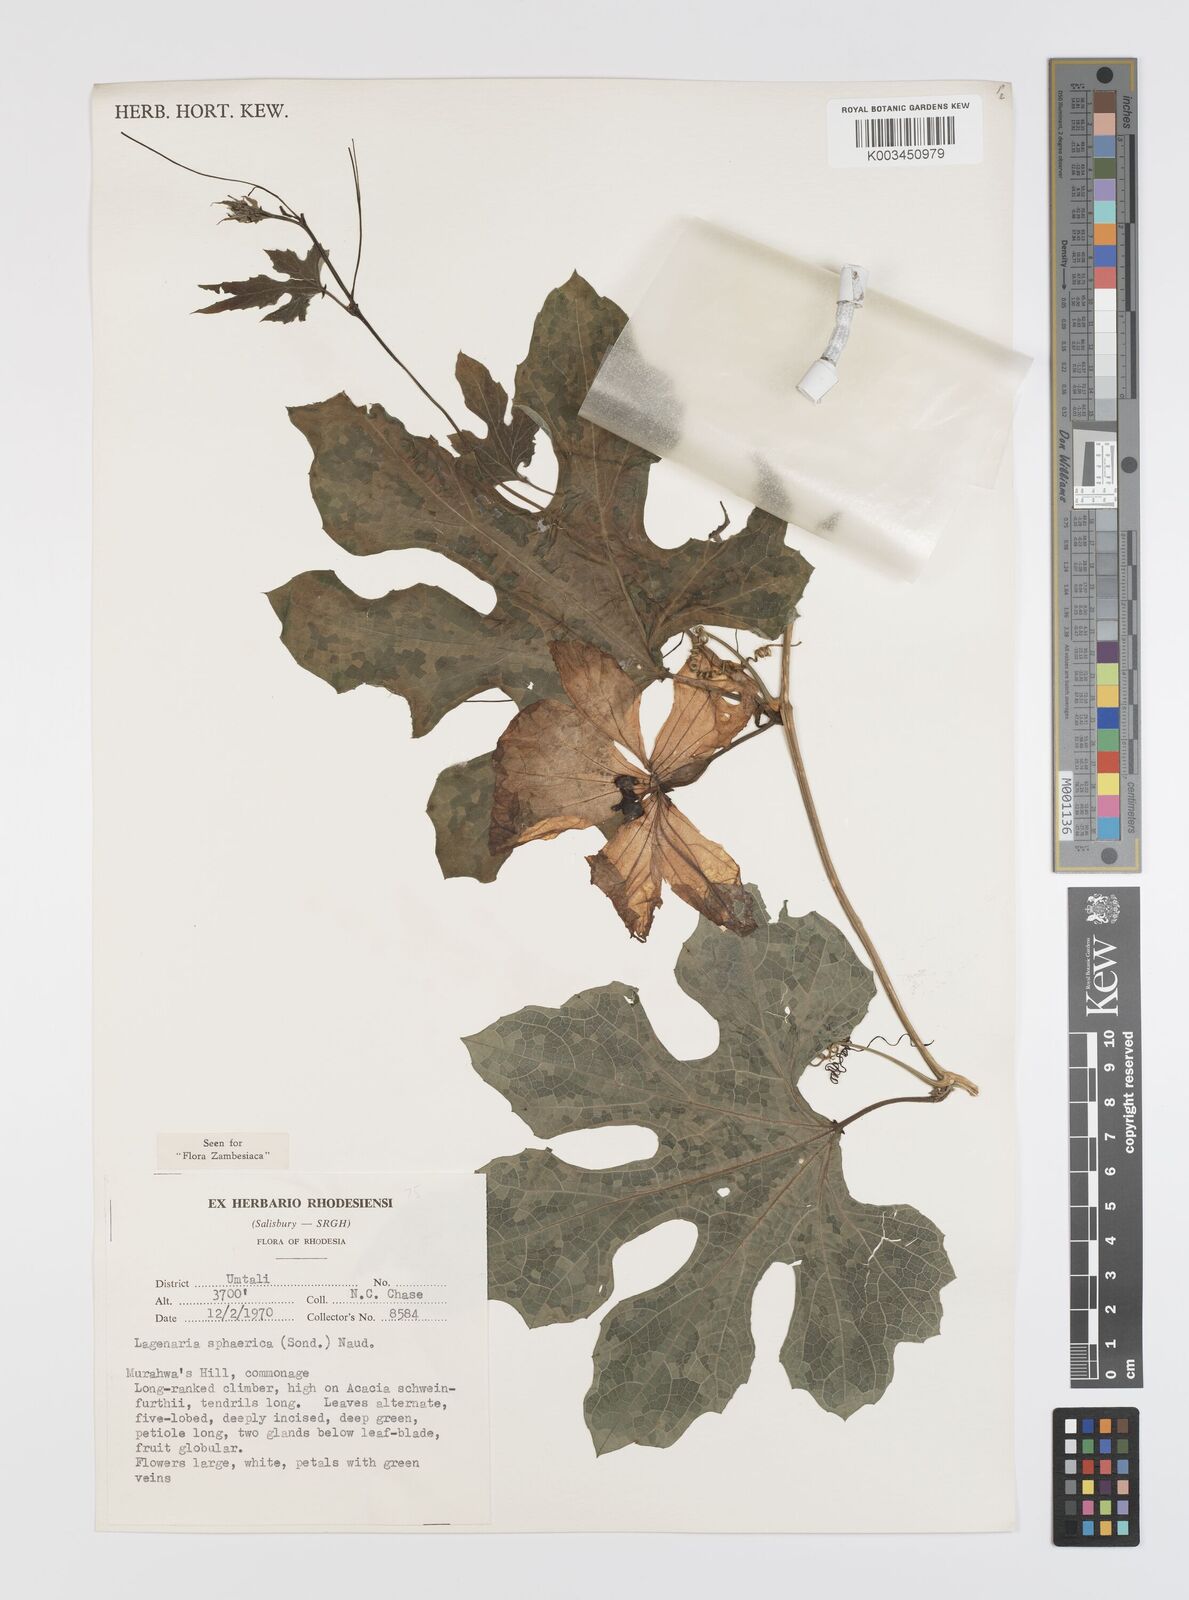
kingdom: Plantae
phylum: Tracheophyta
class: Magnoliopsida
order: Cucurbitales
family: Cucurbitaceae
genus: Lagenaria
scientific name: Lagenaria sphaerica
